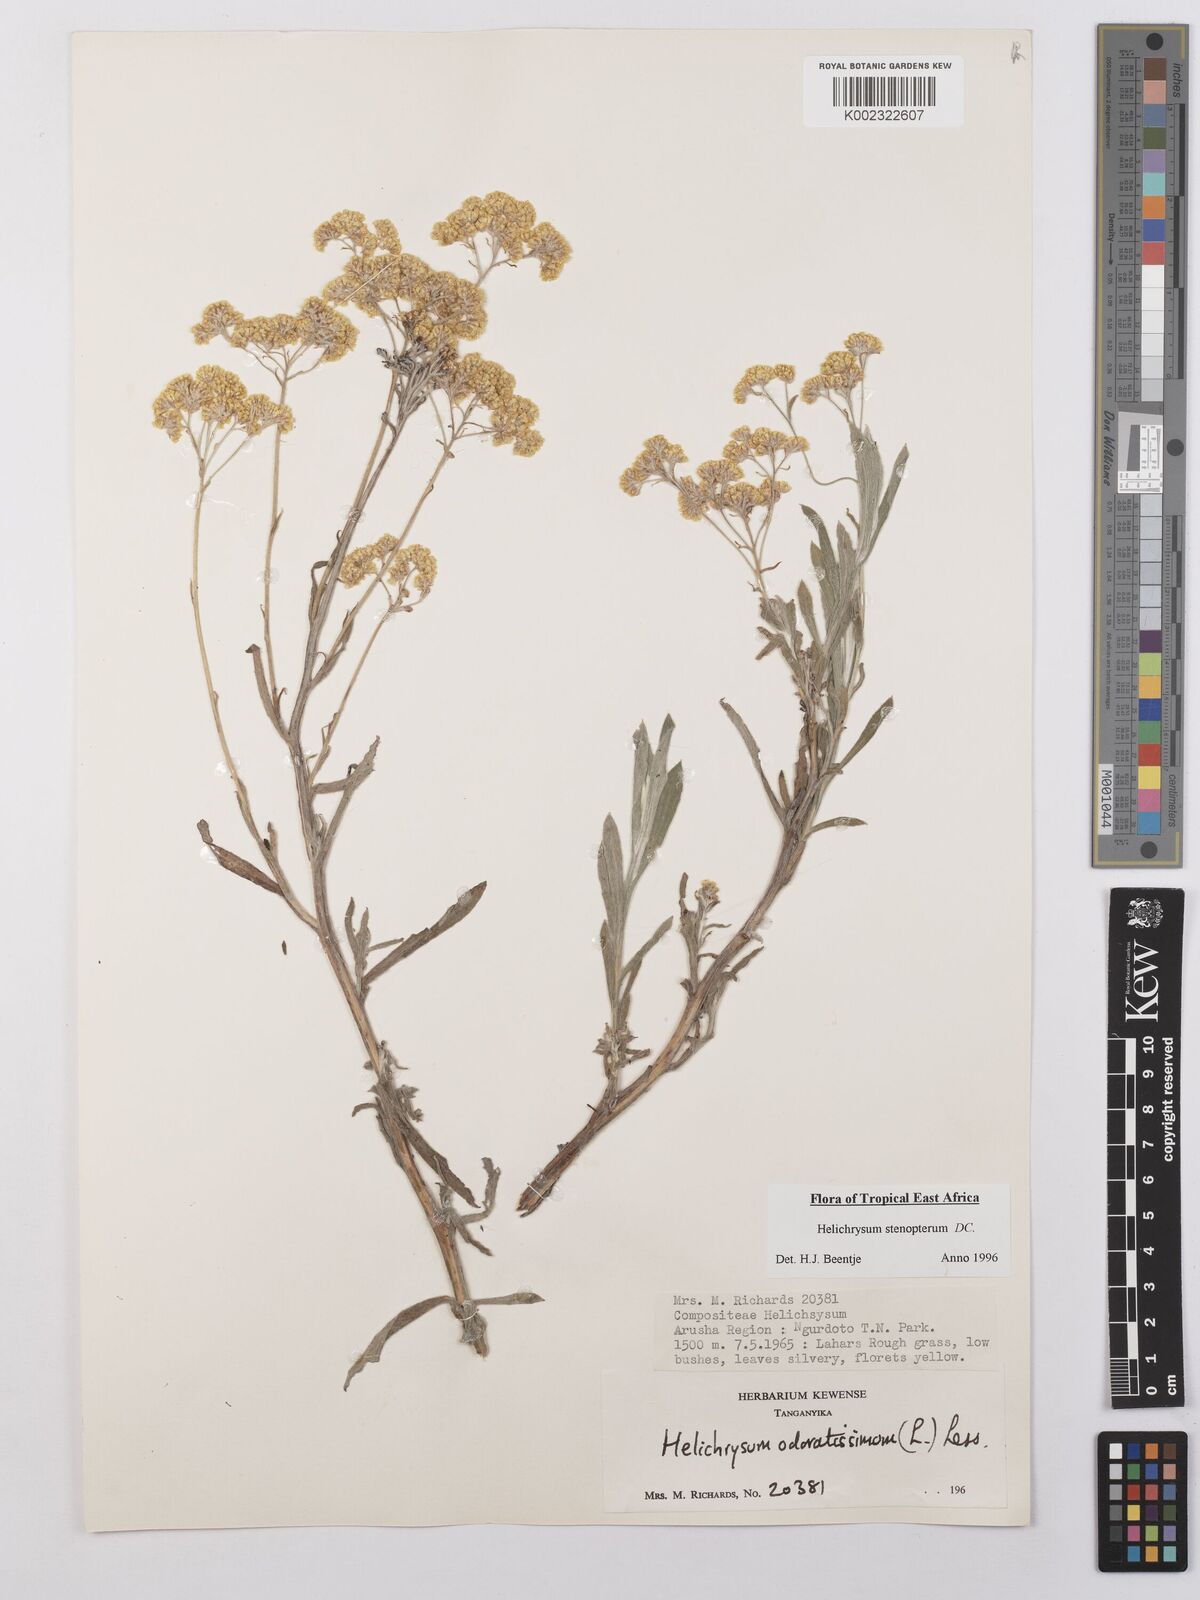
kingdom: Plantae
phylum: Tracheophyta
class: Magnoliopsida
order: Asterales
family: Asteraceae
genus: Helichrysum
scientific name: Helichrysum stenopterum
